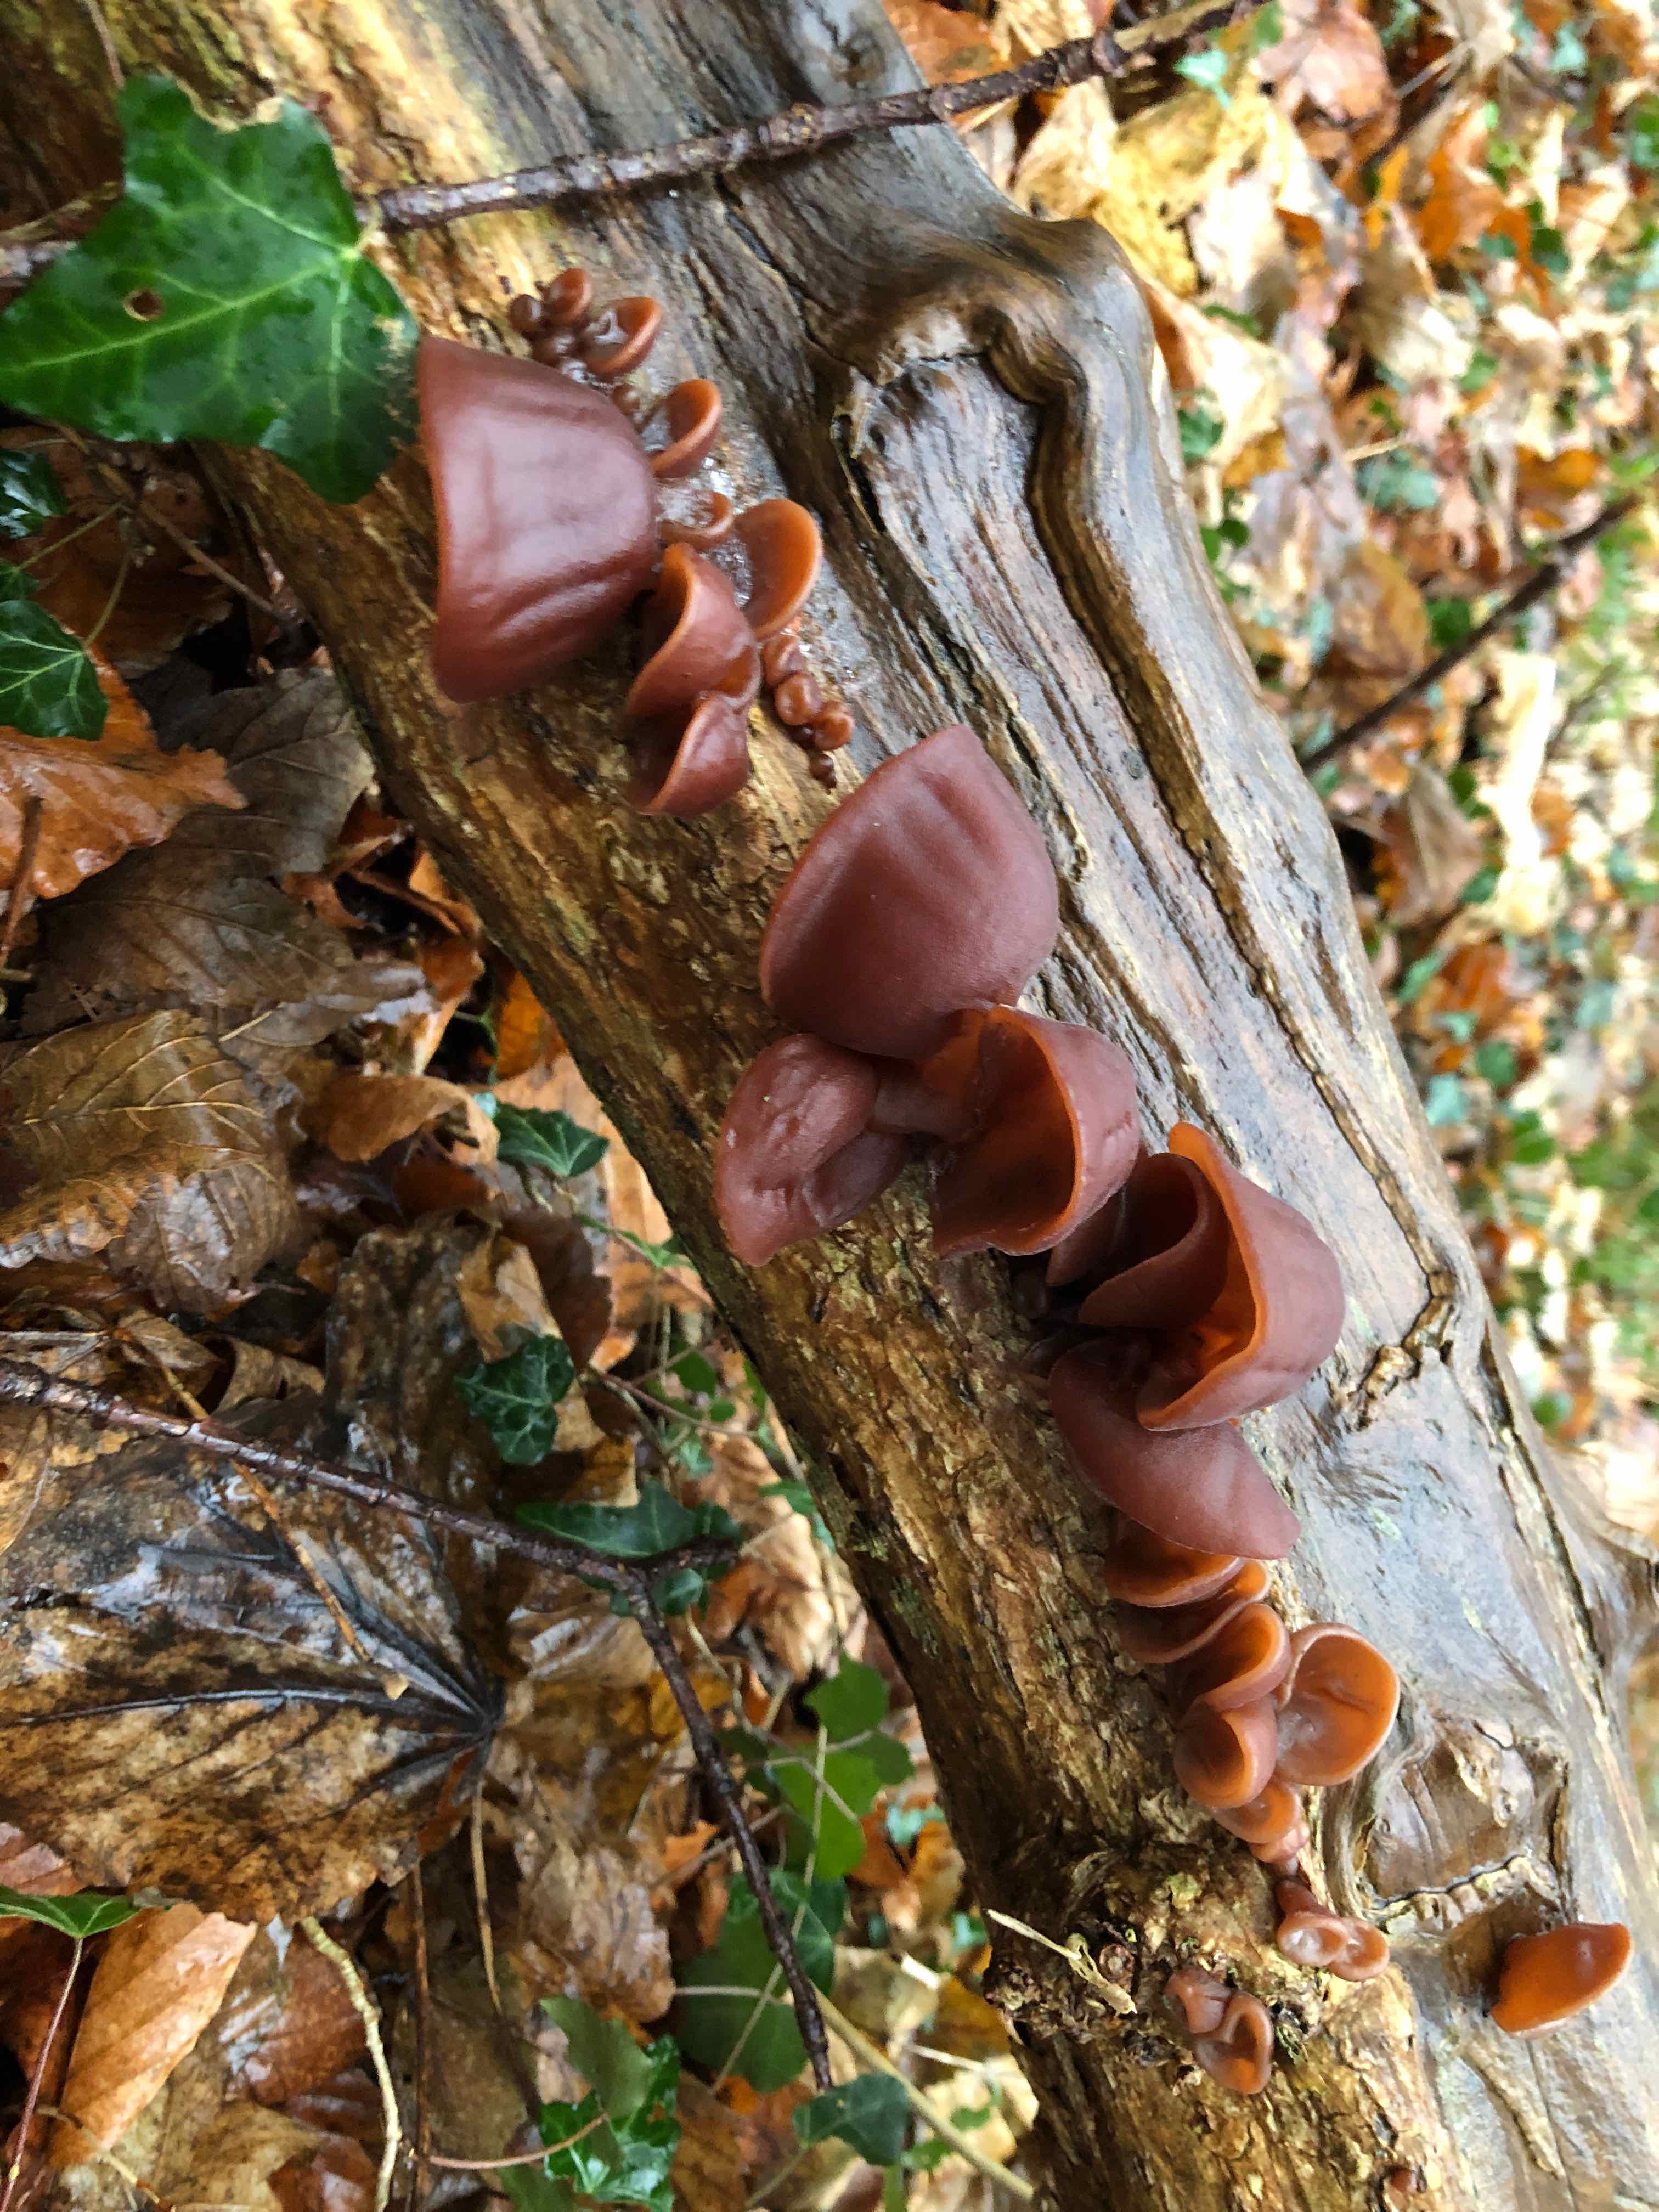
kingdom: Fungi
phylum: Basidiomycota
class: Agaricomycetes
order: Auriculariales
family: Auriculariaceae
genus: Auricularia
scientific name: Auricularia auricula-judae
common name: almindelig judasøre
